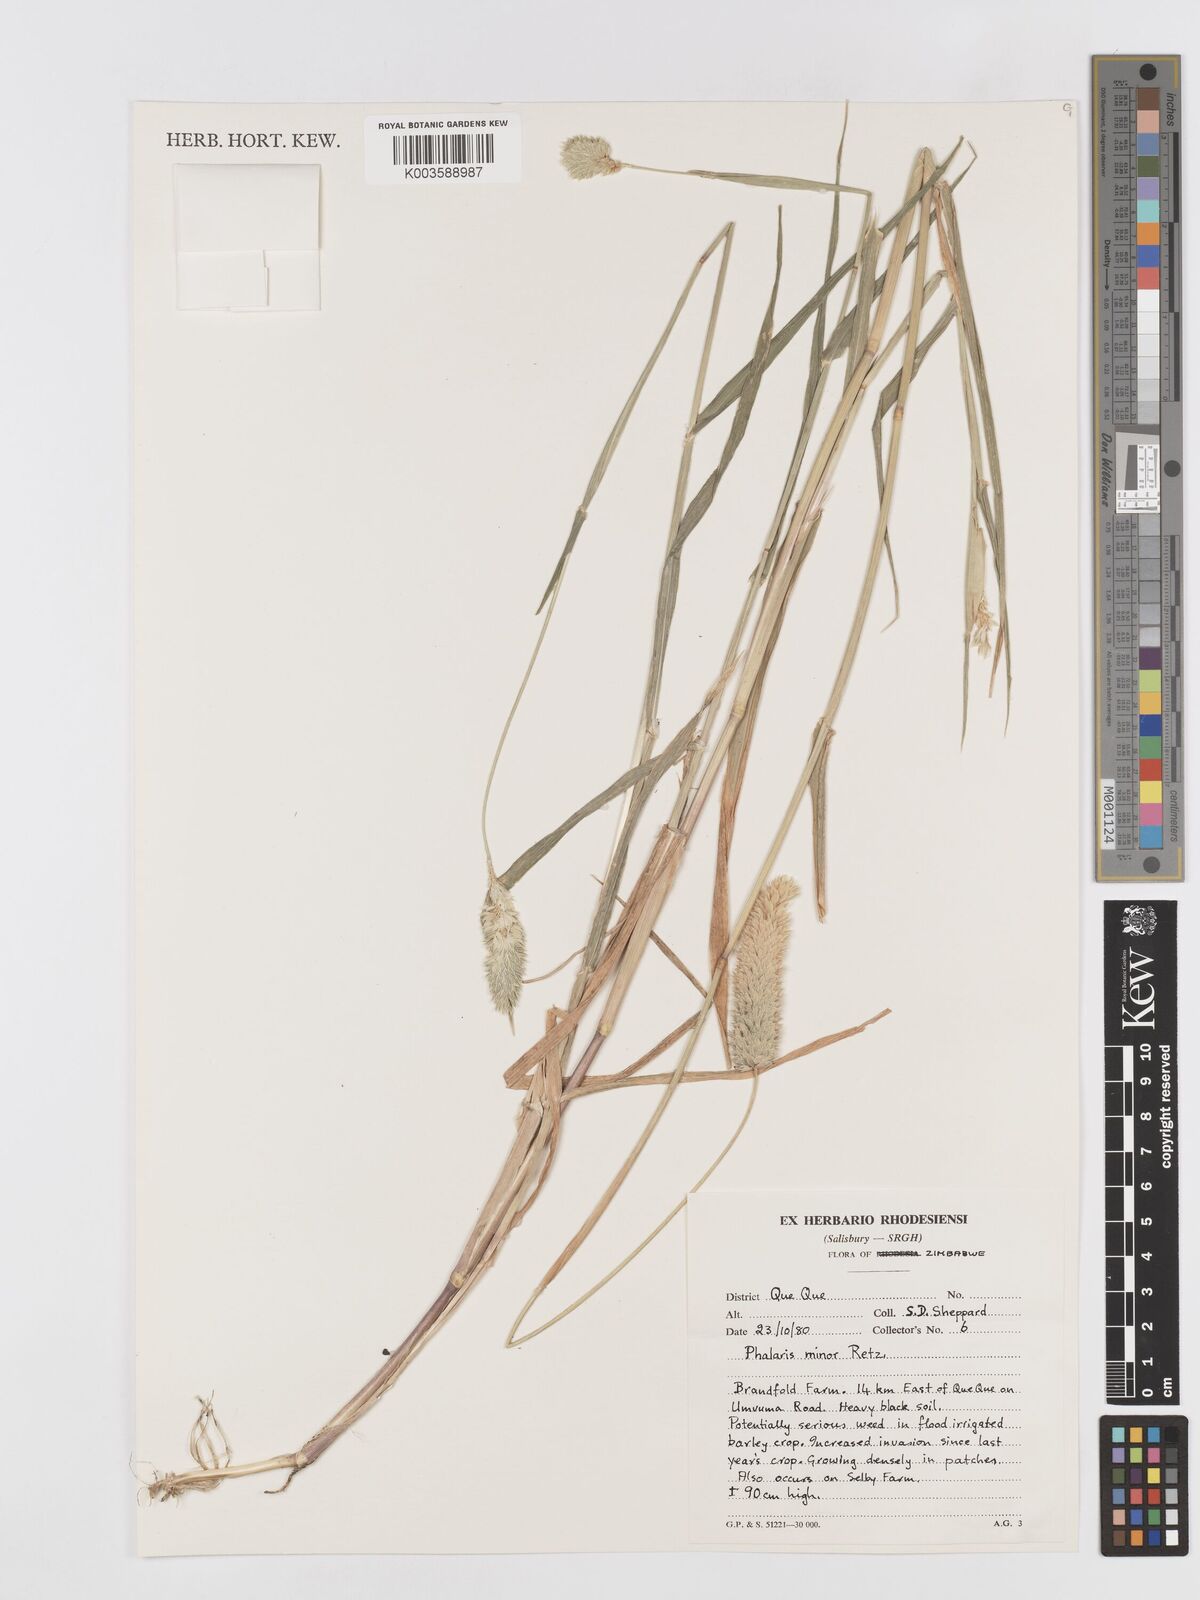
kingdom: Plantae
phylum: Tracheophyta
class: Liliopsida
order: Poales
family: Poaceae
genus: Phalaris
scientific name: Phalaris minor
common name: Littleseed canarygrass
